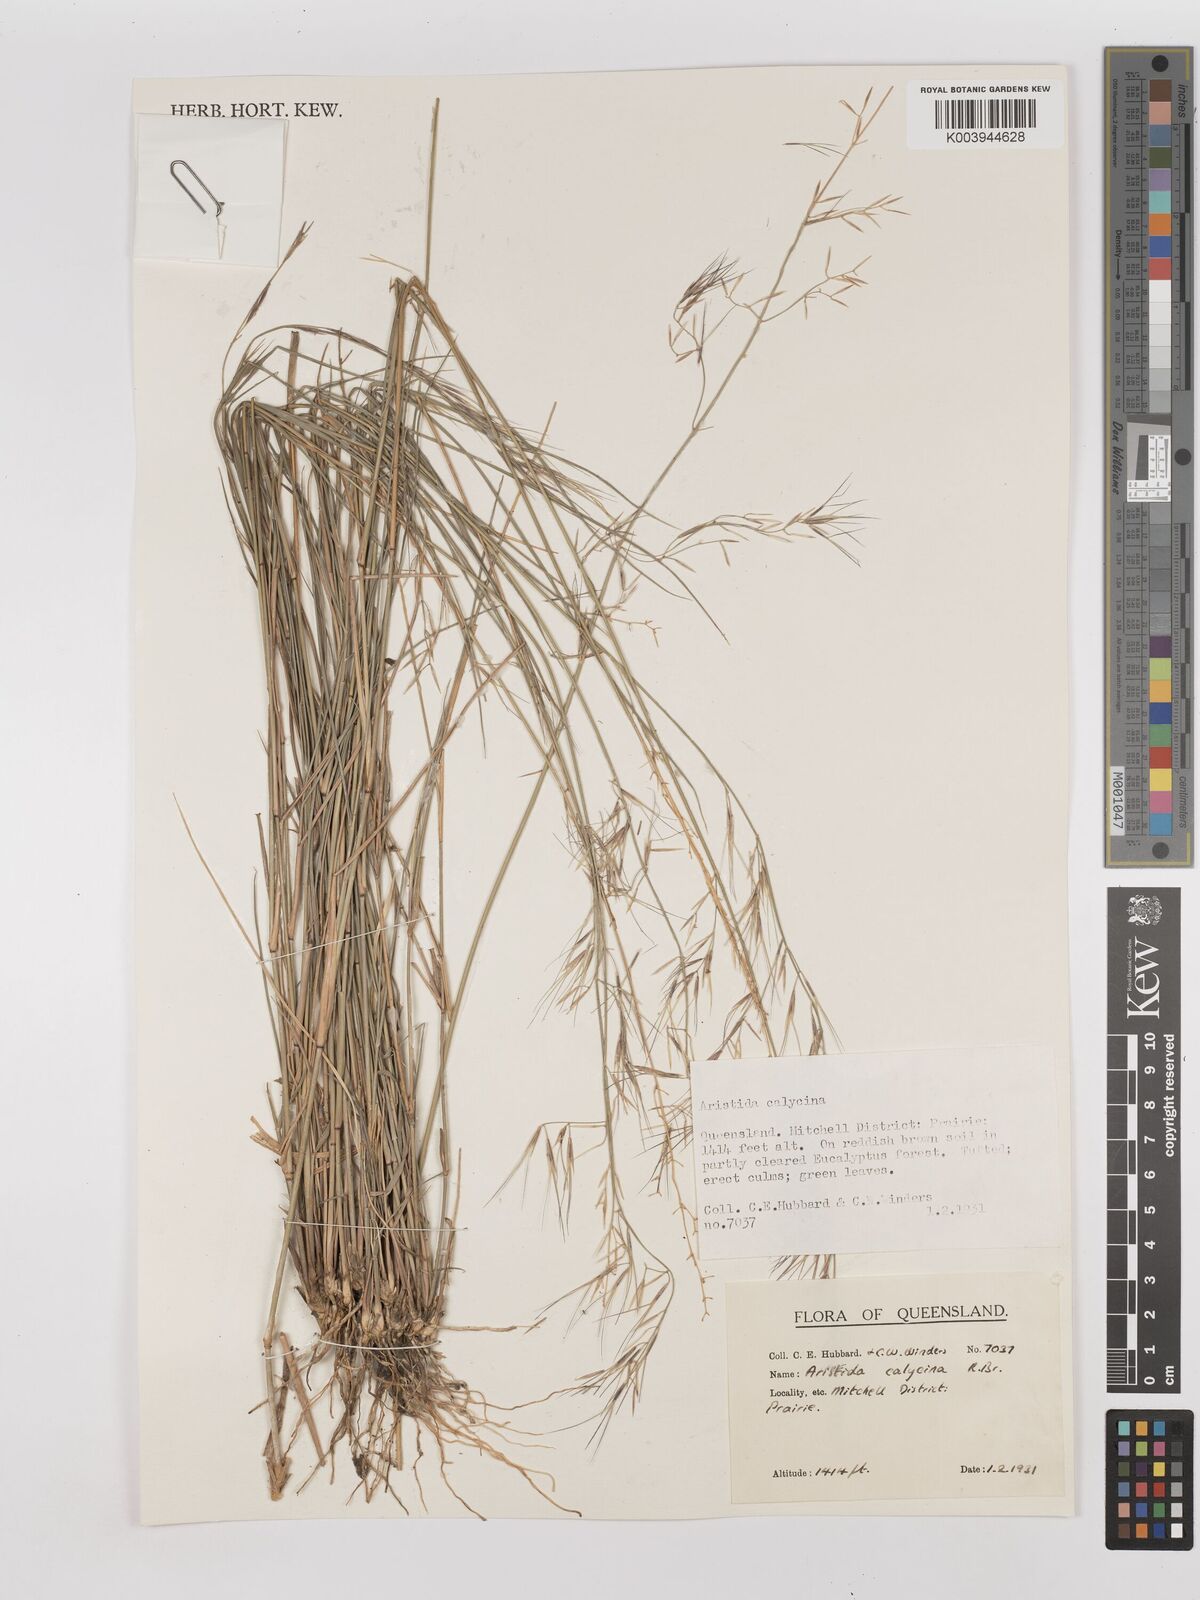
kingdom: Plantae
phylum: Tracheophyta
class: Liliopsida
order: Poales
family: Poaceae
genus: Aristida
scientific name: Aristida calycina
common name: Dark wire grass
